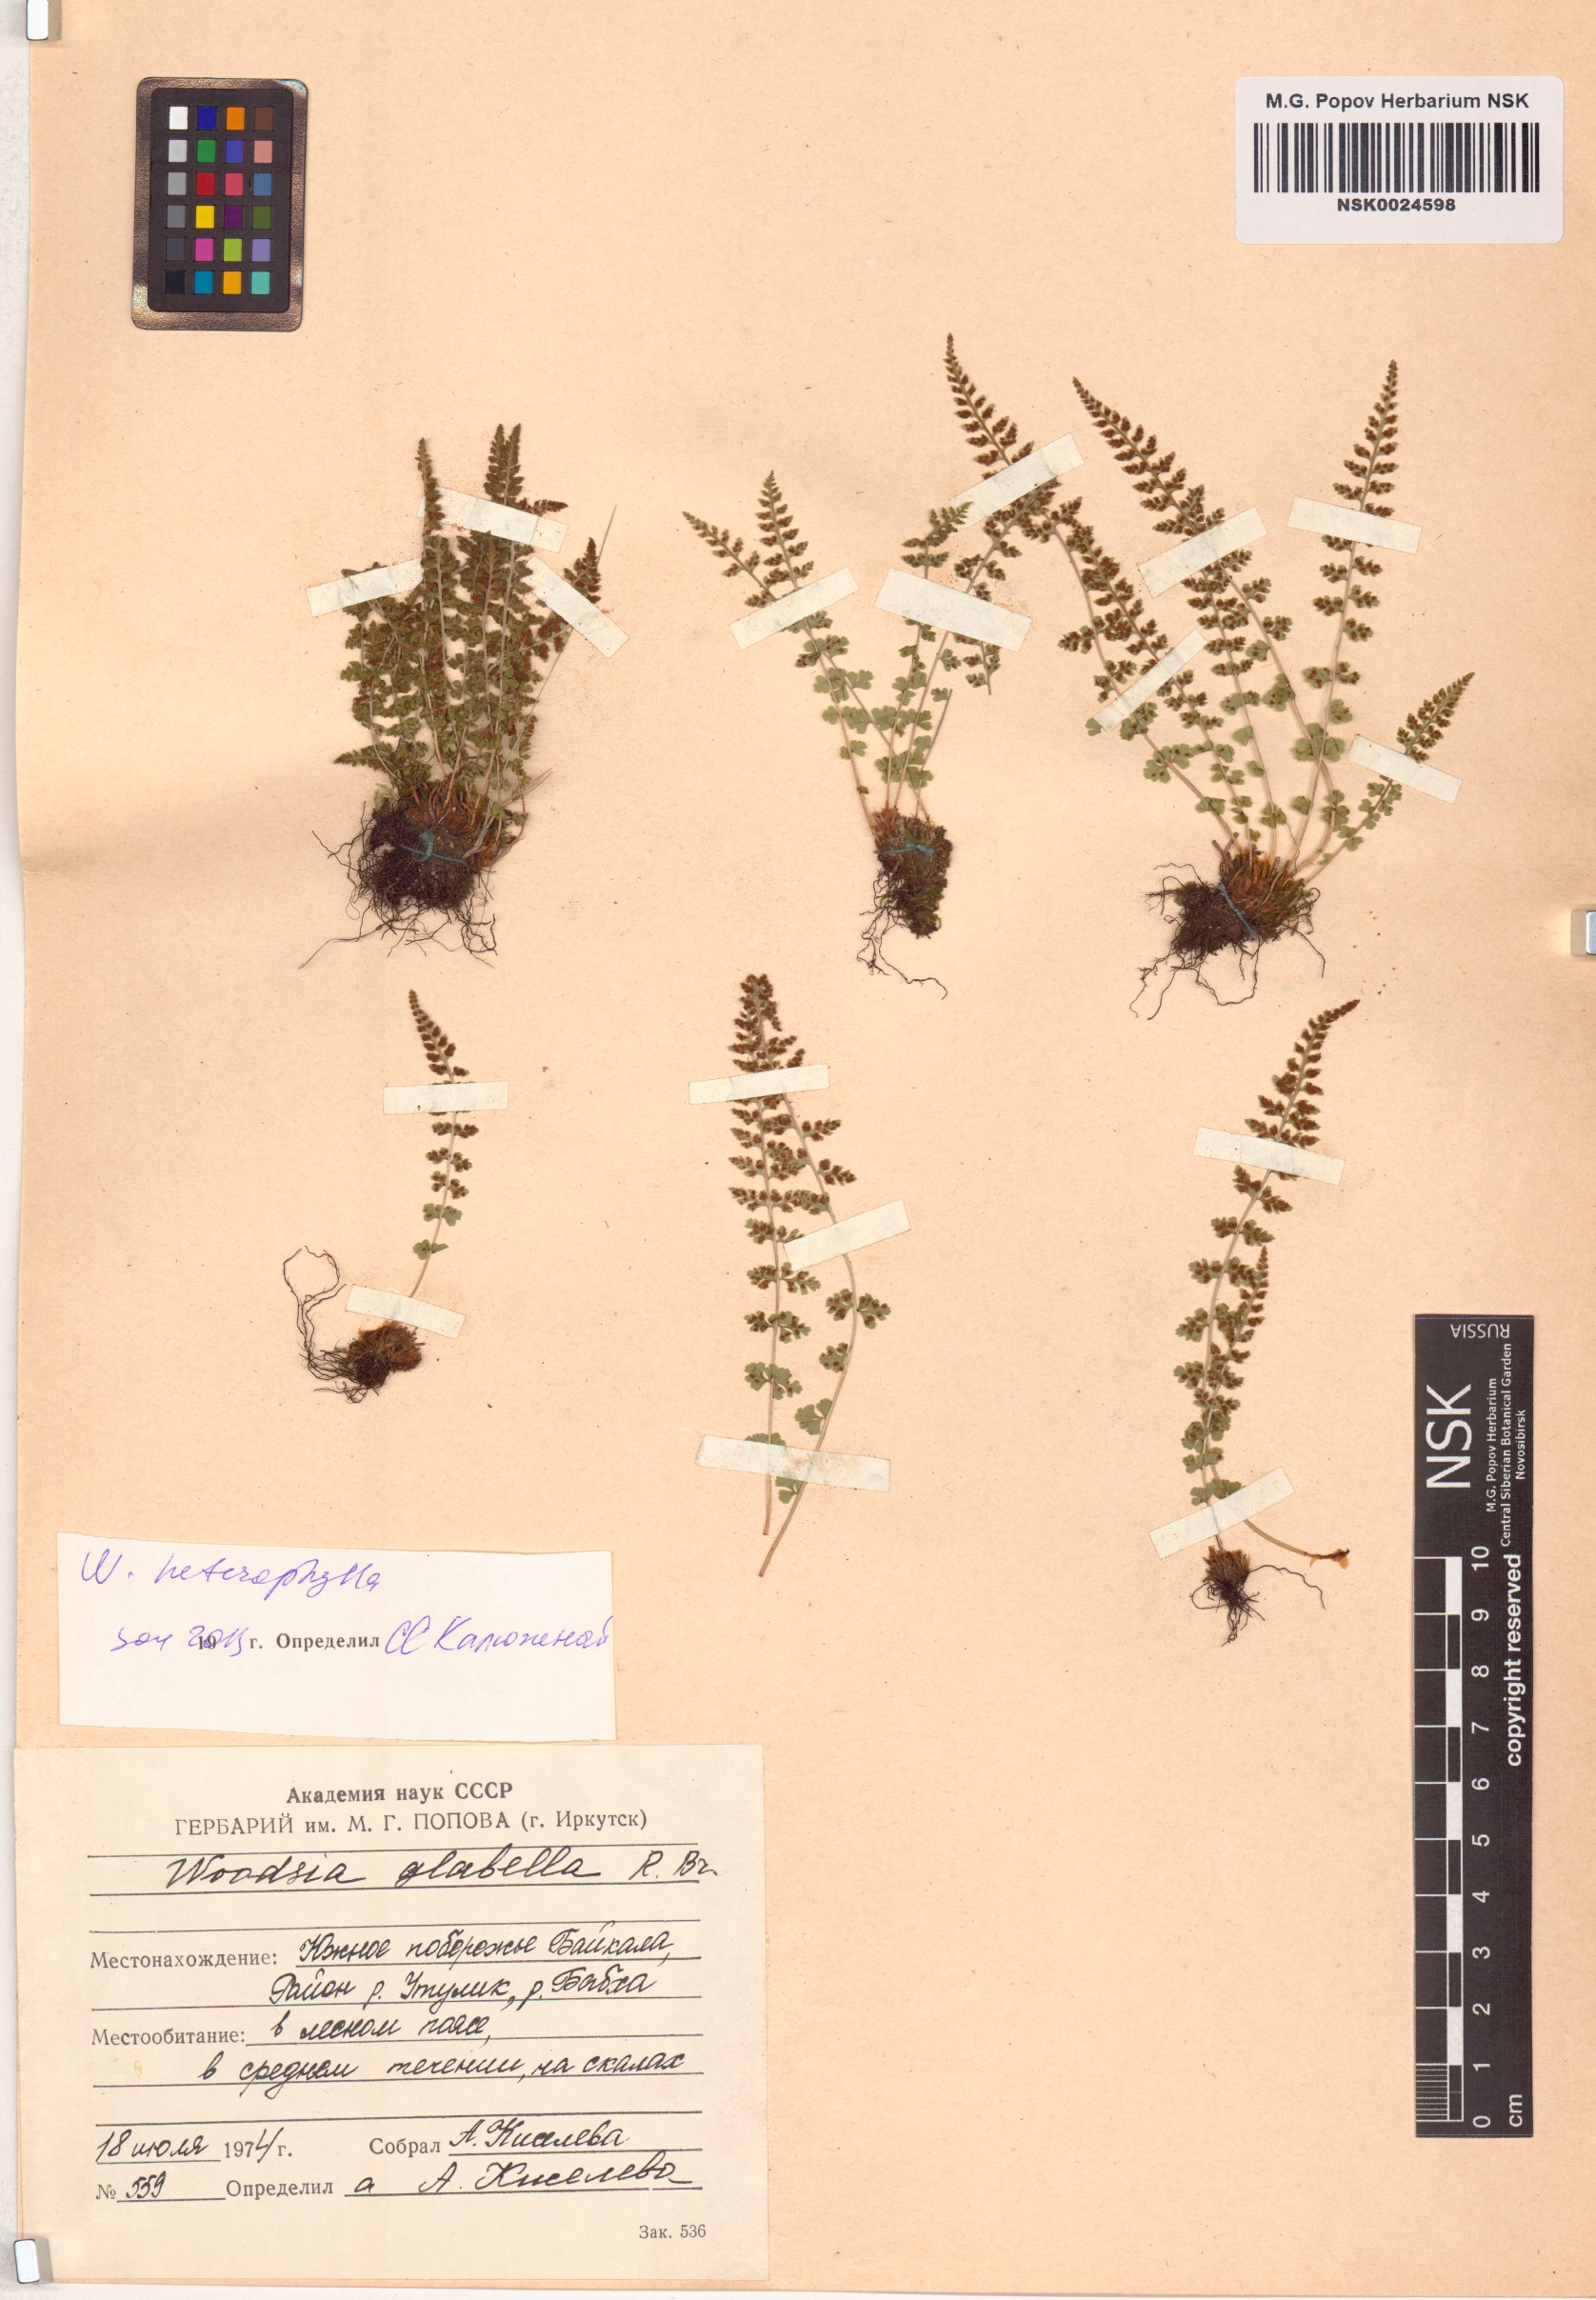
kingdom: Plantae
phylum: Tracheophyta
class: Polypodiopsida
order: Polypodiales
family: Woodsiaceae
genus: Woodsia
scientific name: Woodsia pulchella
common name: Graceful woodsia
